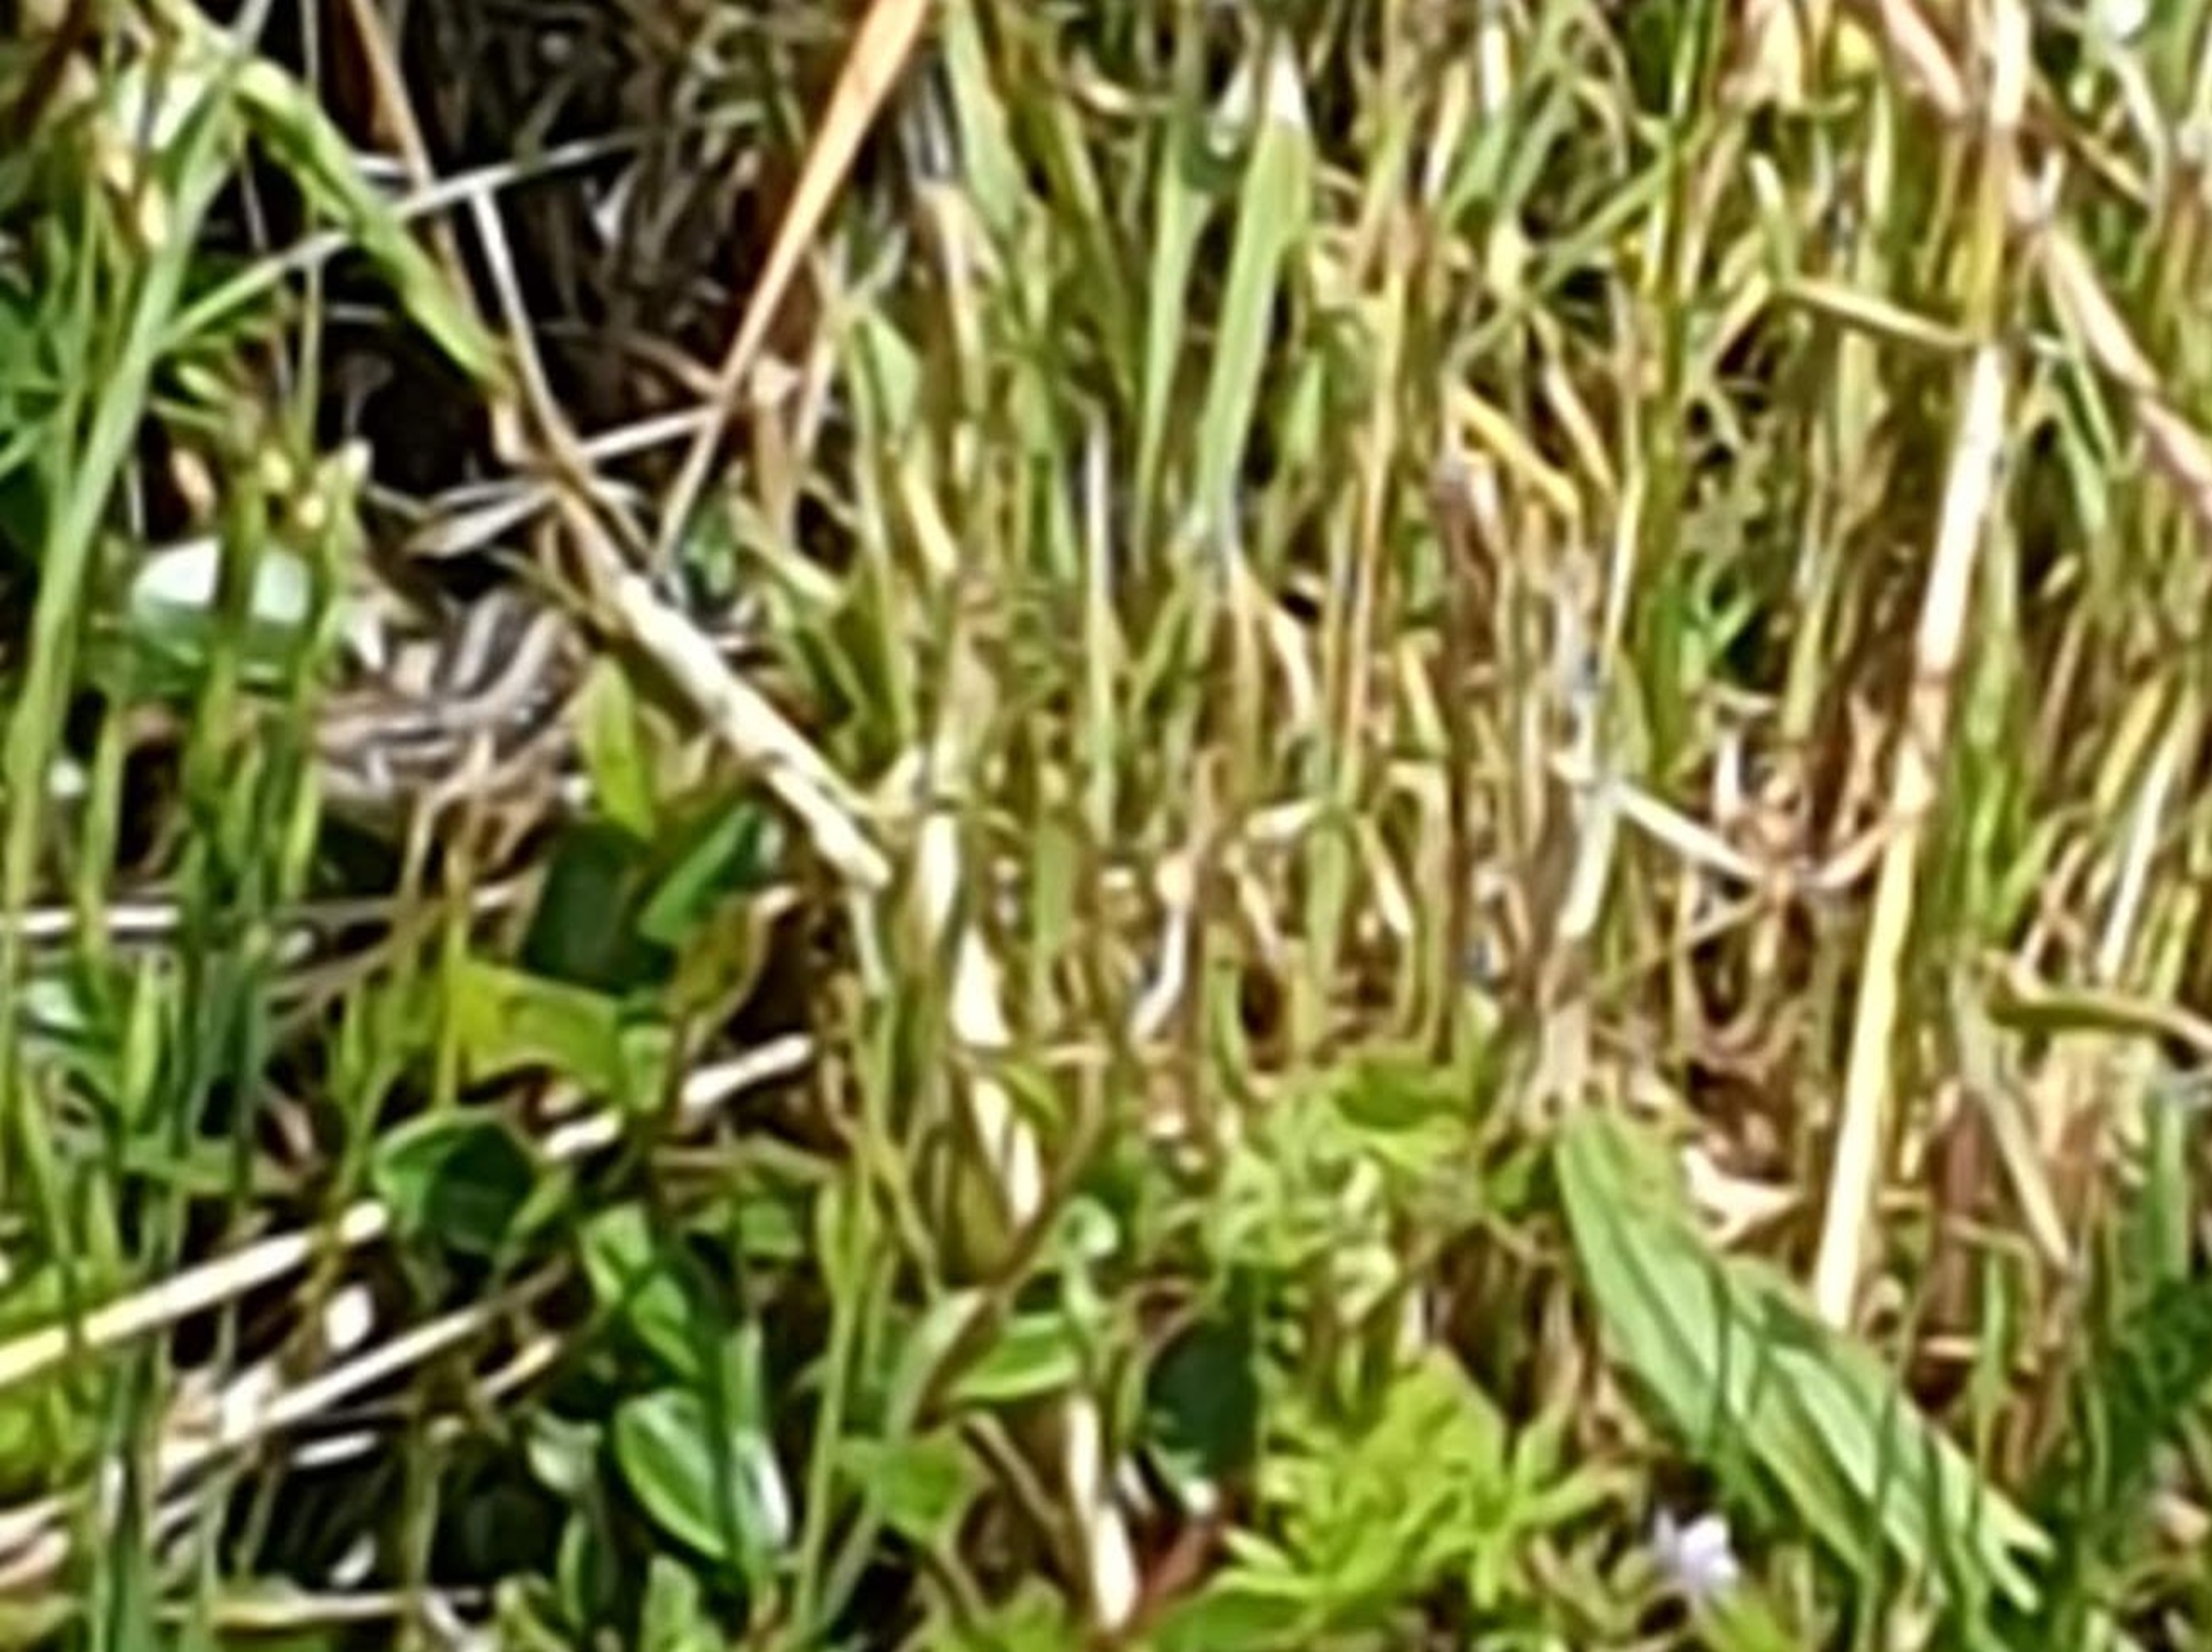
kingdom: Animalia
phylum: Chordata
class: Squamata
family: Lacertidae
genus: Lacerta
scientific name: Lacerta agilis
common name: Markfirben
